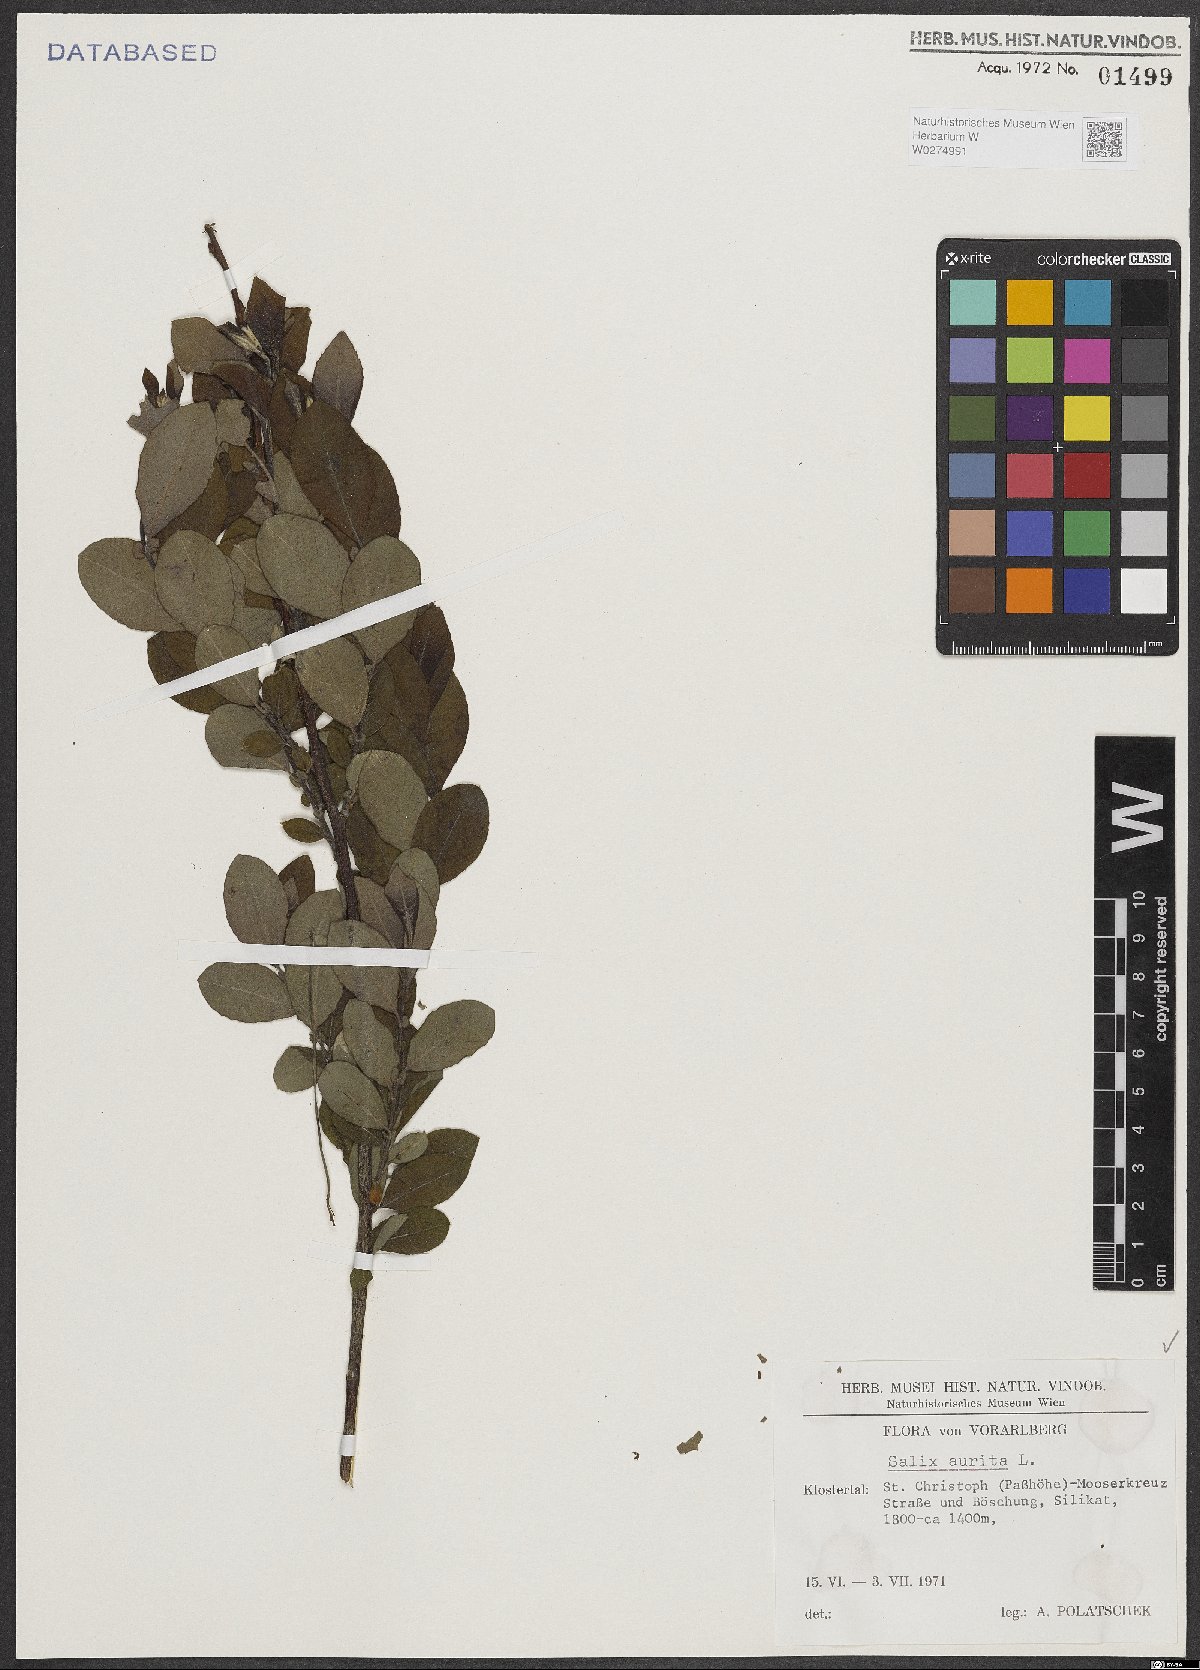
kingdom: Plantae
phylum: Tracheophyta
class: Magnoliopsida
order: Malpighiales
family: Salicaceae
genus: Salix
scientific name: Salix aurita
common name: Eared willow
